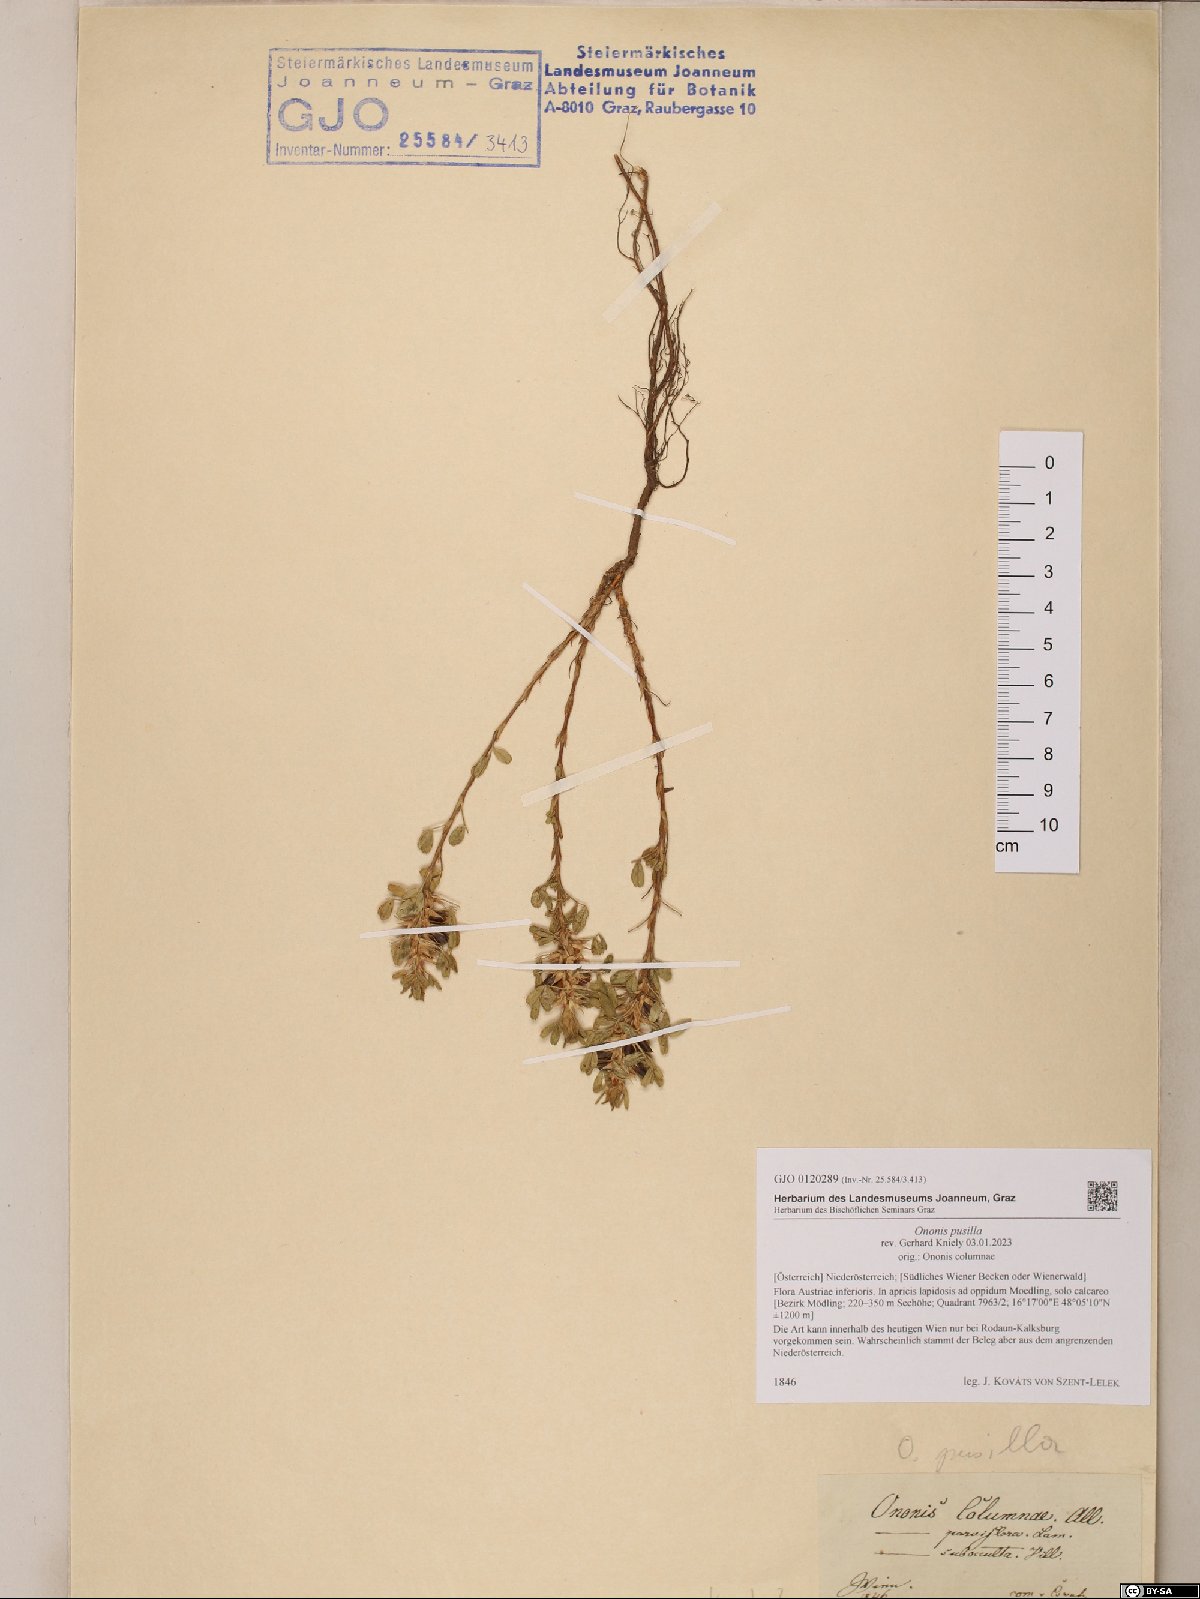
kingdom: Plantae
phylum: Tracheophyta
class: Magnoliopsida
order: Fabales
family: Fabaceae
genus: Ononis
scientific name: Ononis pusilla
